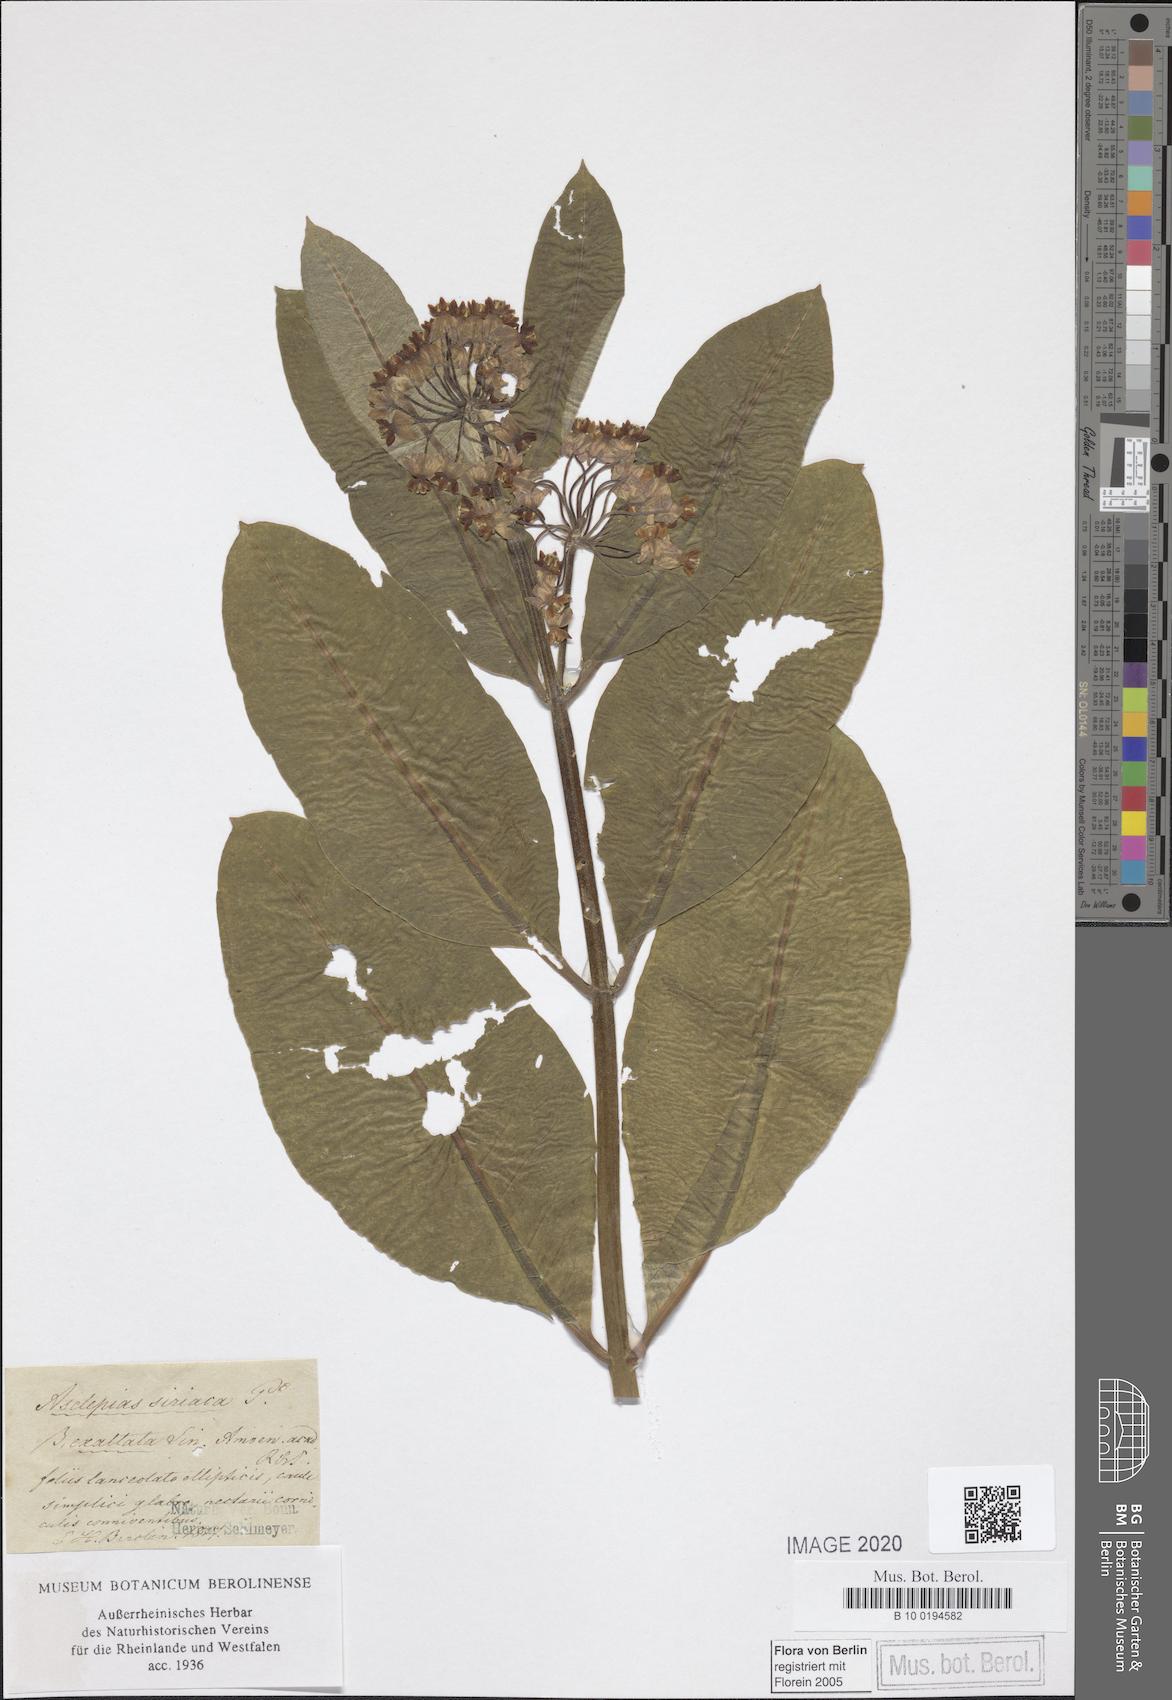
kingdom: Plantae
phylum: Tracheophyta
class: Magnoliopsida
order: Gentianales
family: Apocynaceae
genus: Asclepias
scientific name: Asclepias syriaca
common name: Common milkweed
